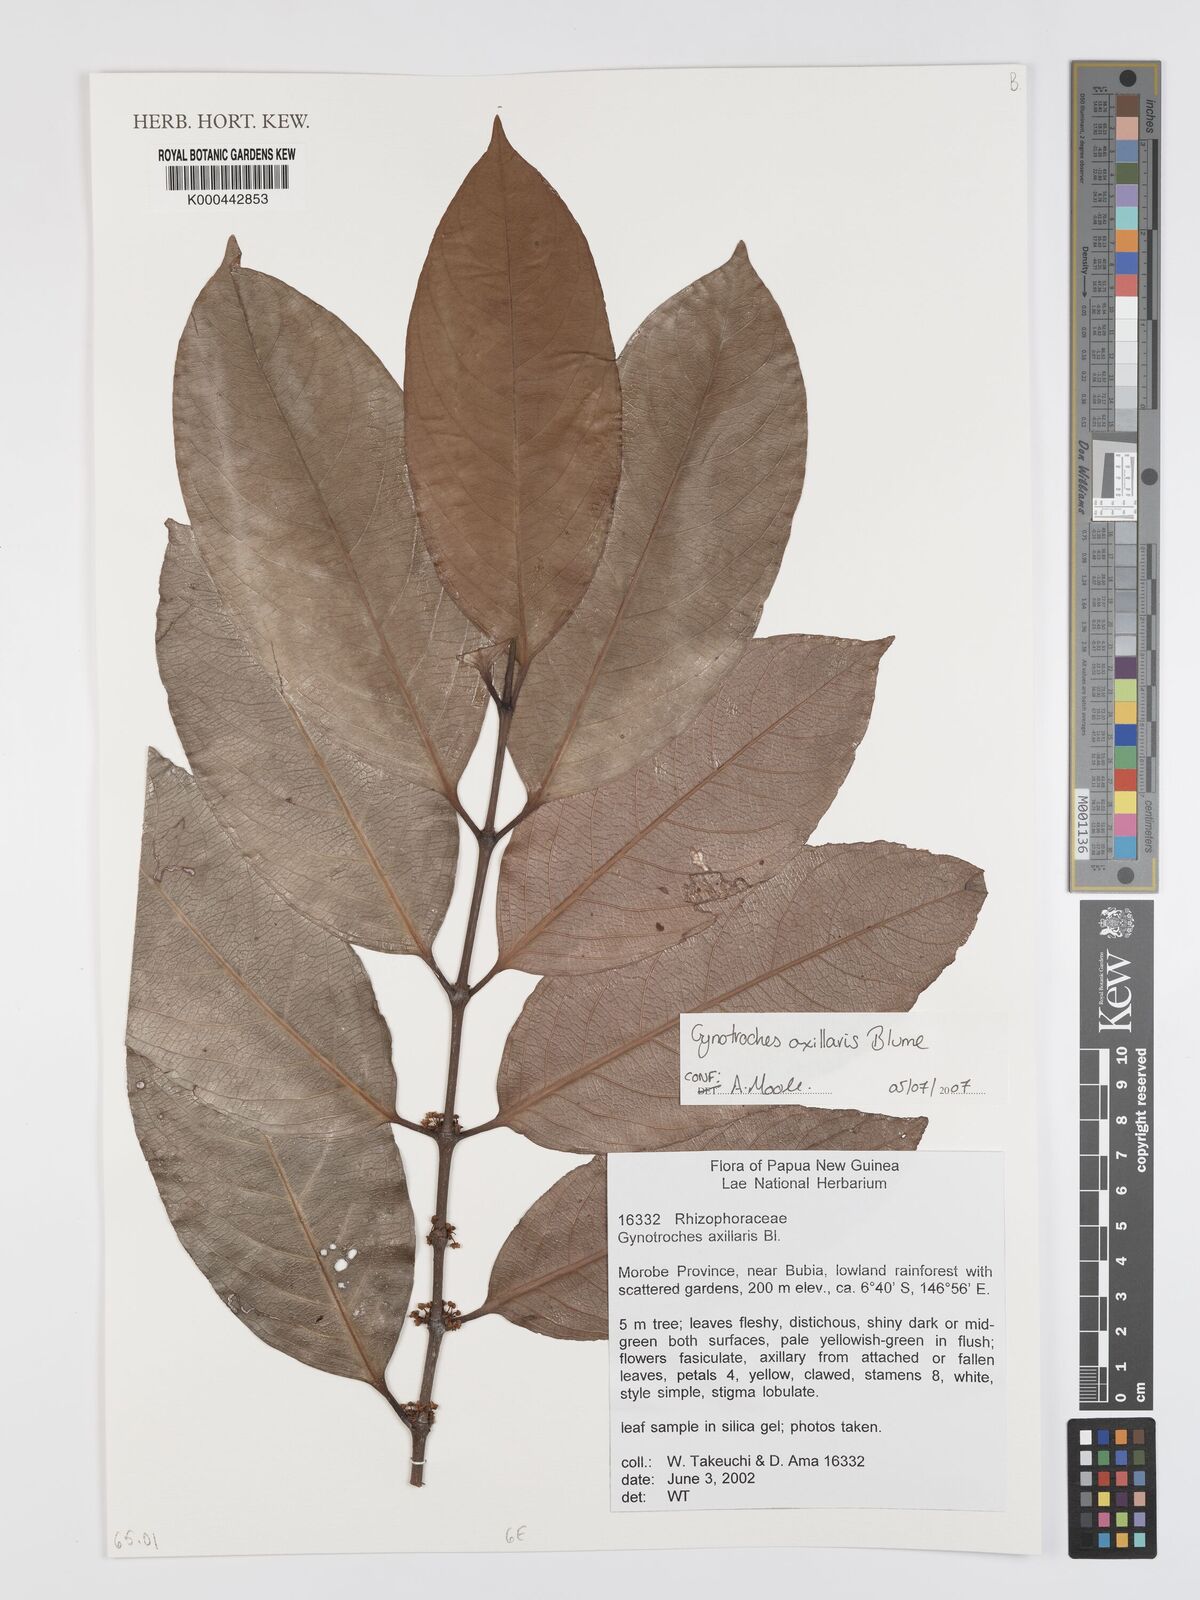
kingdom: Plantae
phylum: Tracheophyta
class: Magnoliopsida
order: Malpighiales
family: Rhizophoraceae
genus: Gynotroches
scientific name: Gynotroches axillaris
